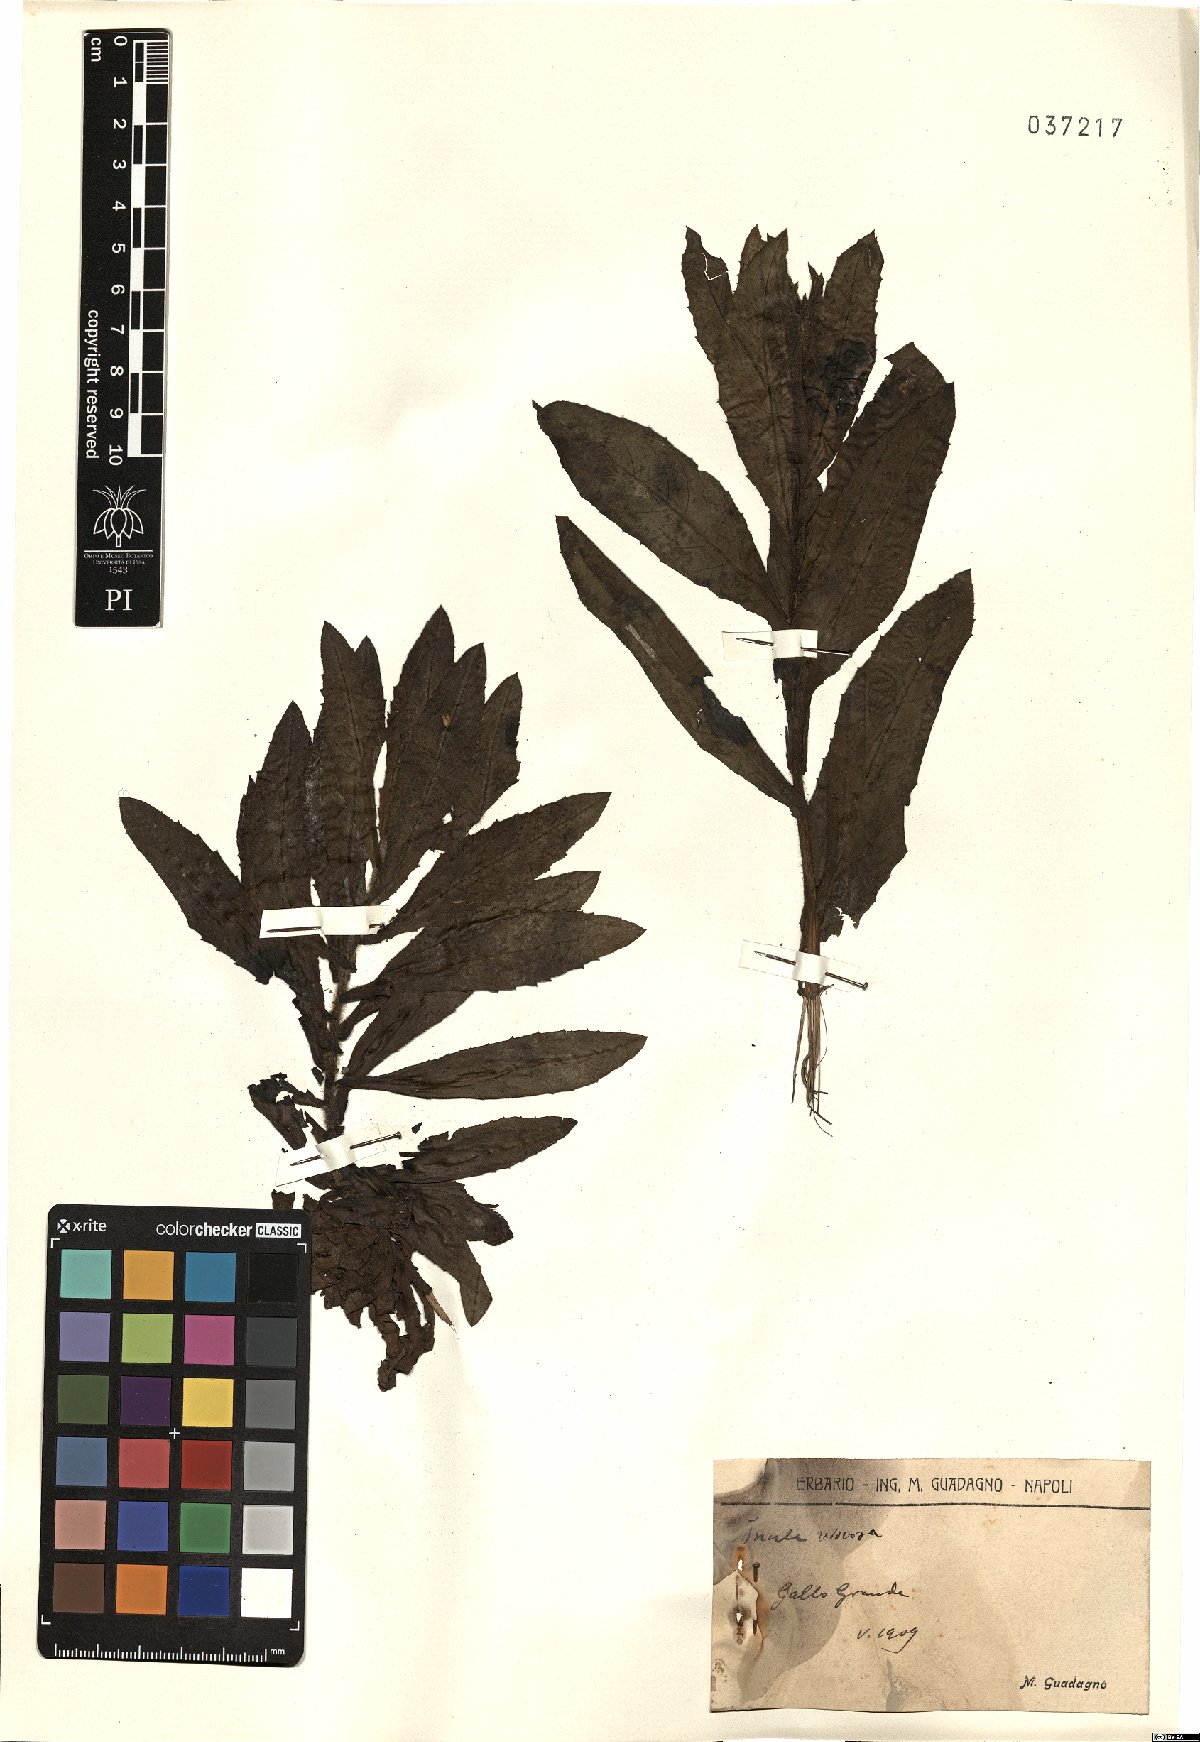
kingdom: Plantae
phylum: Tracheophyta
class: Magnoliopsida
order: Asterales
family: Asteraceae
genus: Dittrichia
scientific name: Dittrichia viscosa
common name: Woody fleabane
